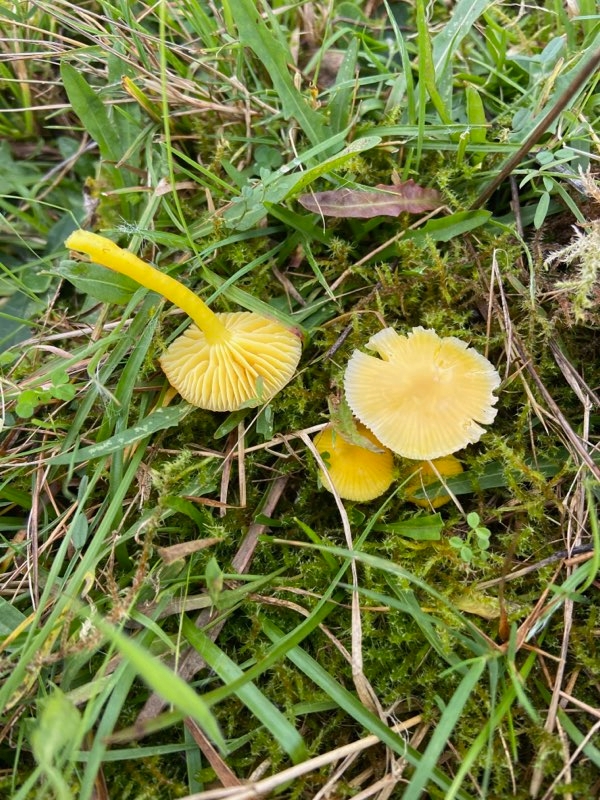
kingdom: Fungi
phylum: Basidiomycota
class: Agaricomycetes
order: Agaricales
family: Hygrophoraceae
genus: Hygrocybe
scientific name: Hygrocybe ceracea
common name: voksgul vokshat
